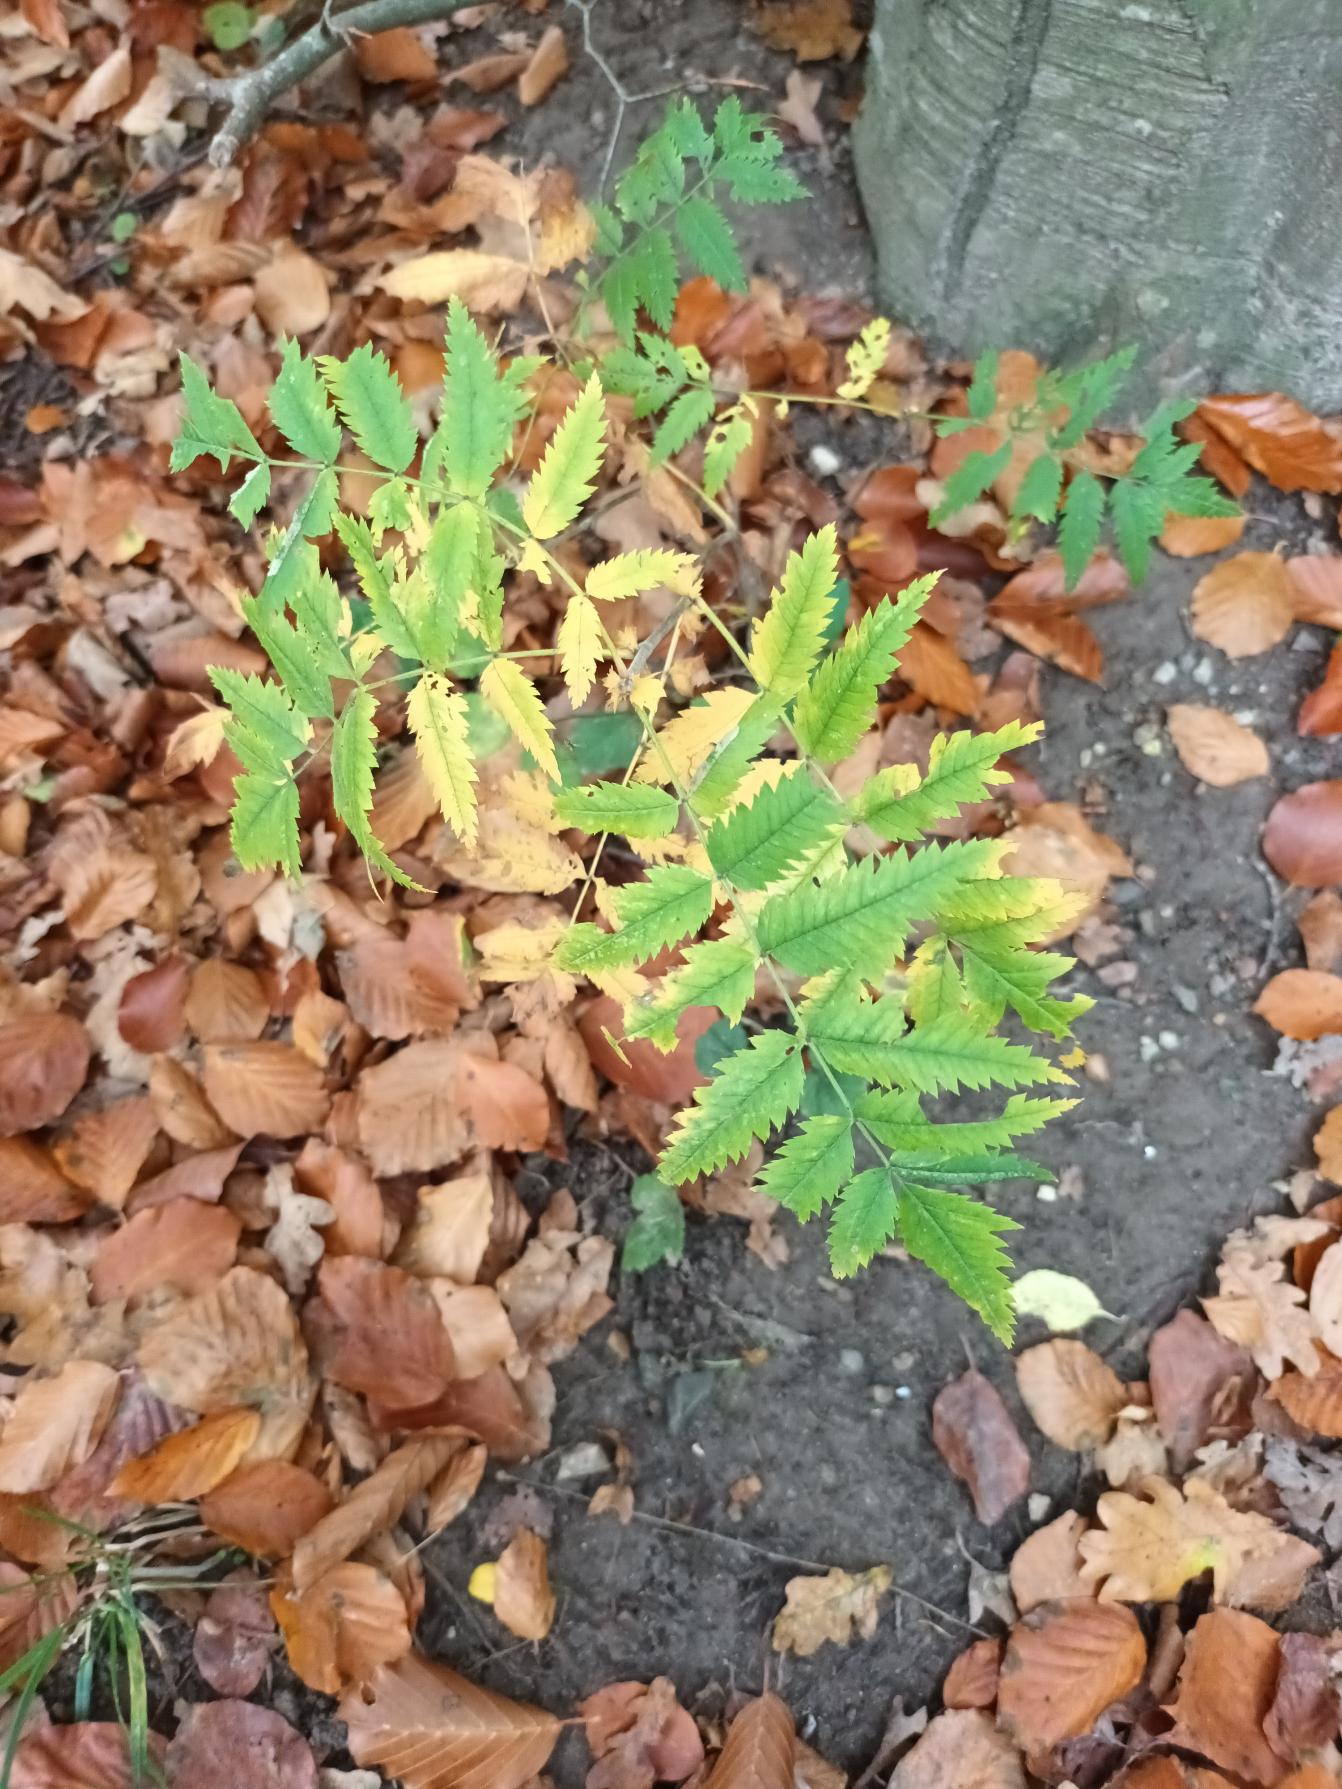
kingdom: Plantae
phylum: Tracheophyta
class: Magnoliopsida
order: Rosales
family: Rosaceae
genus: Sorbus
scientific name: Sorbus aucuparia
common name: Almindelig røn
